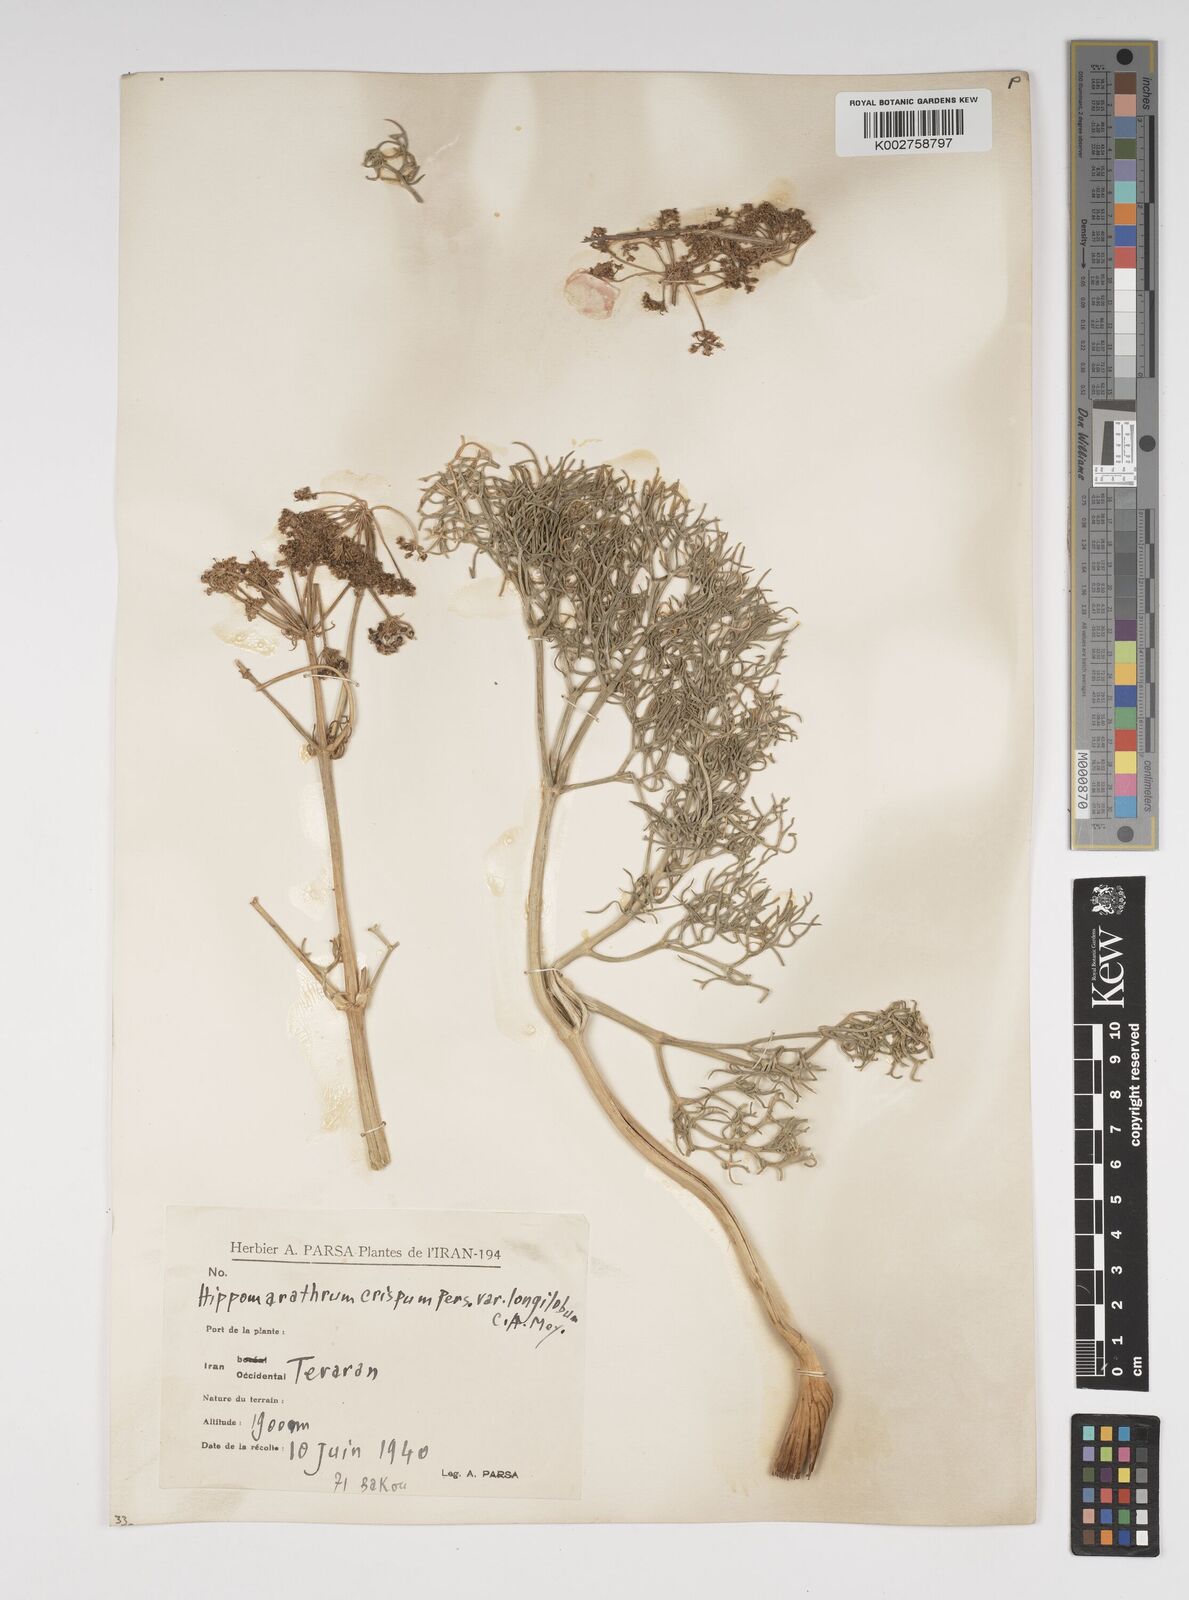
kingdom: Plantae
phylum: Tracheophyta
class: Magnoliopsida
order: Apiales
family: Apiaceae
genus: Bilacunaria
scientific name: Bilacunaria microcarpa
